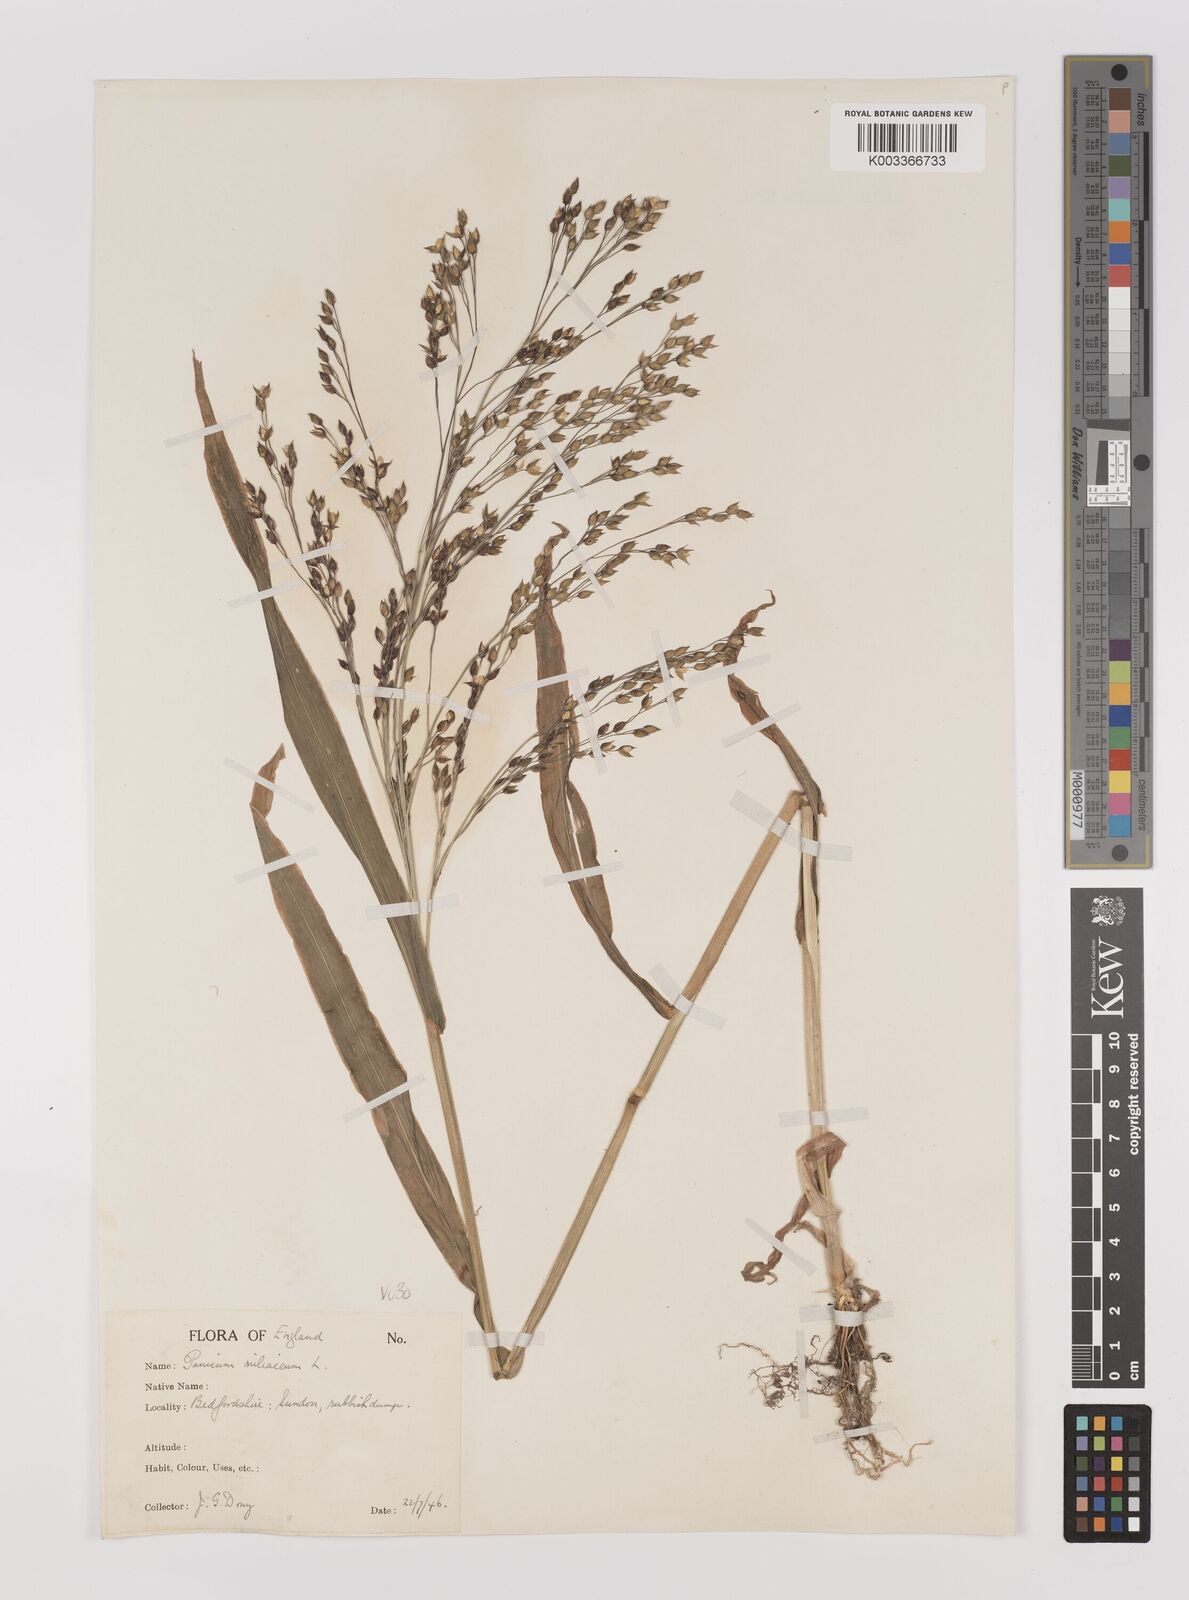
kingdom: Plantae
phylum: Tracheophyta
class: Liliopsida
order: Poales
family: Poaceae
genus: Panicum
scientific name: Panicum miliaceum
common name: Common millet
